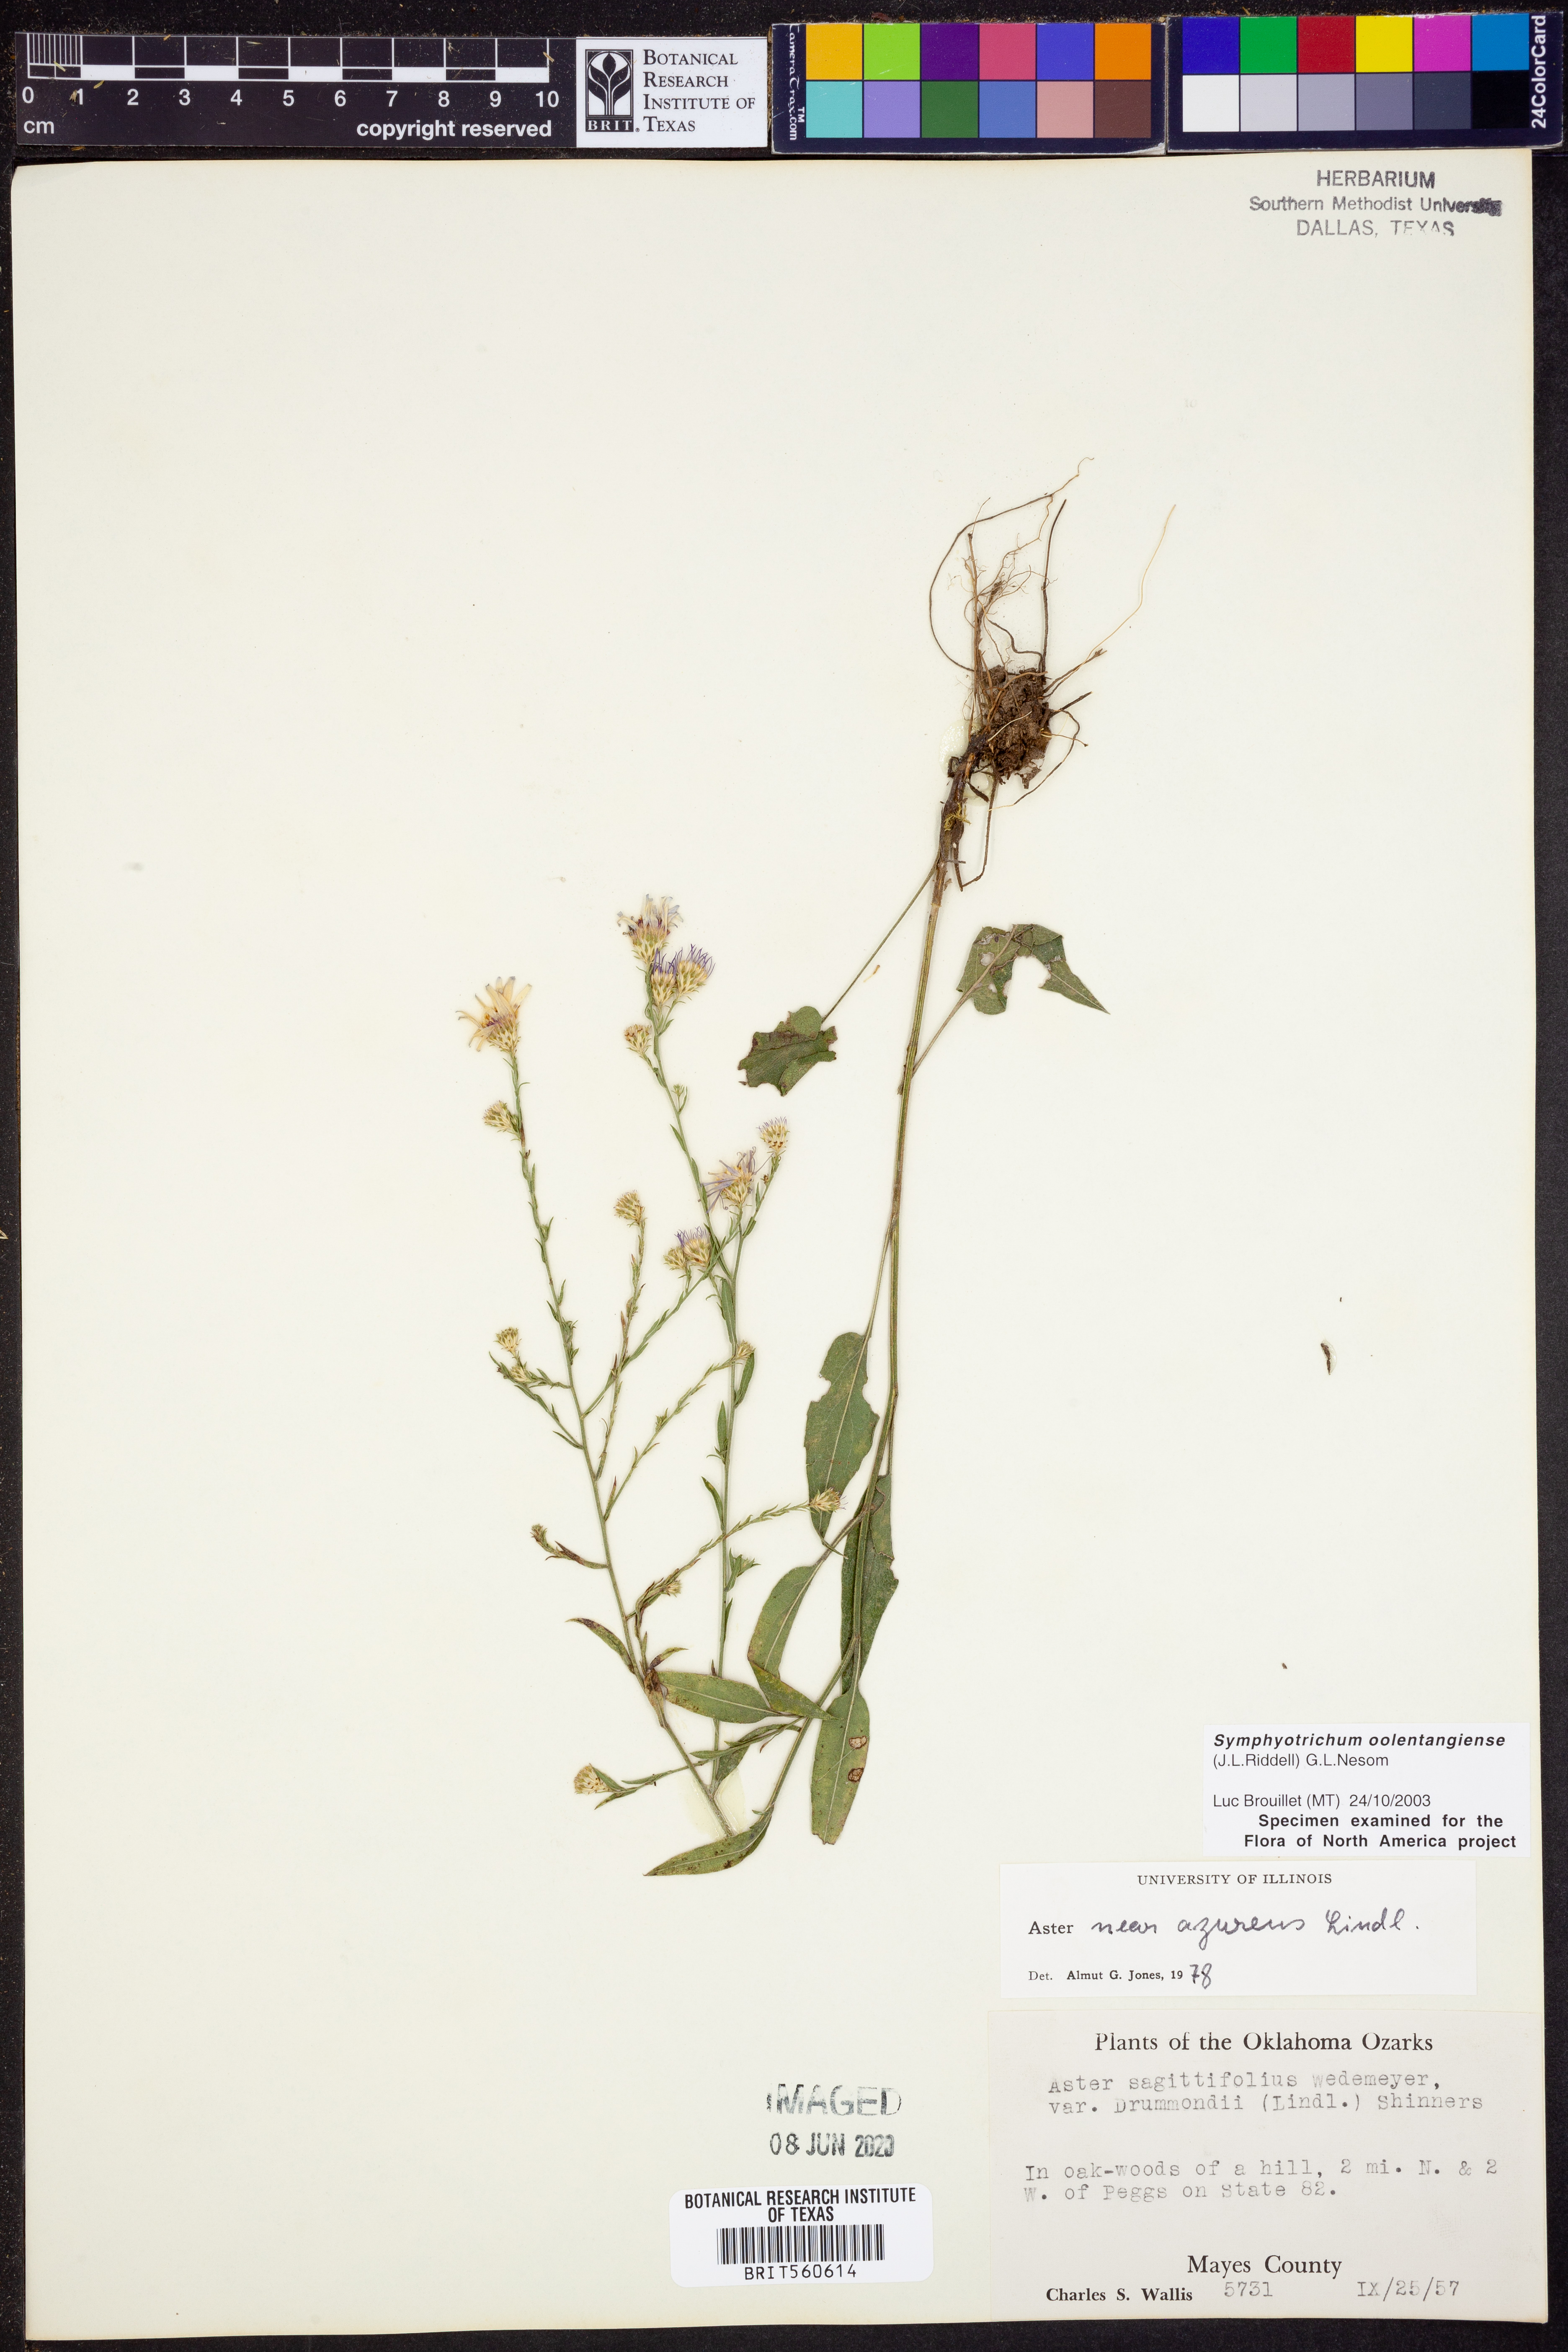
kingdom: Plantae
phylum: Tracheophyta
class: Magnoliopsida
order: Asterales
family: Asteraceae
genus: Symphyotrichum
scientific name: Symphyotrichum oolentangiense
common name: Azure aster
